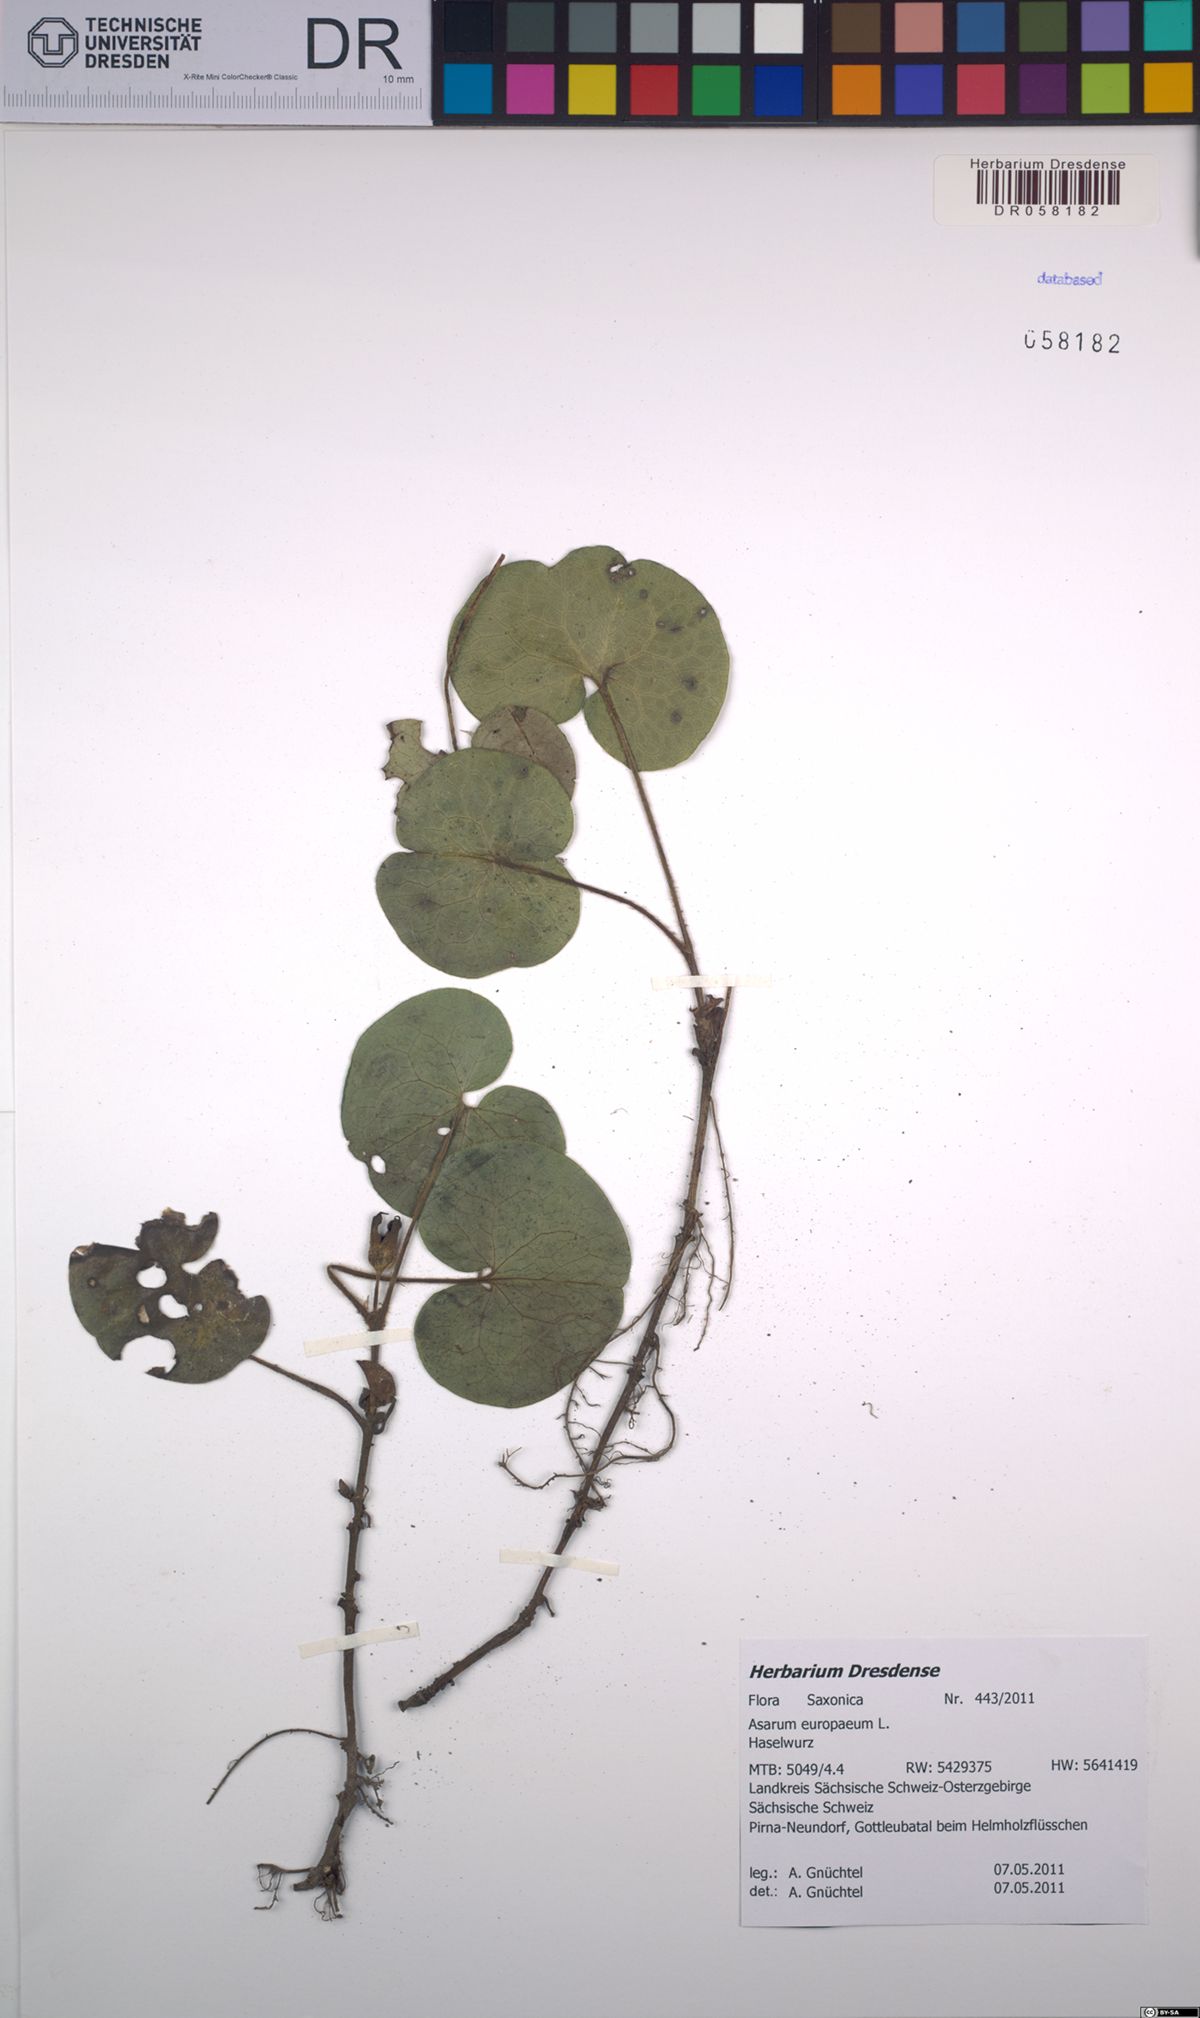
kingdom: Plantae
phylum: Tracheophyta
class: Magnoliopsida
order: Piperales
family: Aristolochiaceae
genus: Asarum
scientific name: Asarum europaeum
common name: Asarabacca
